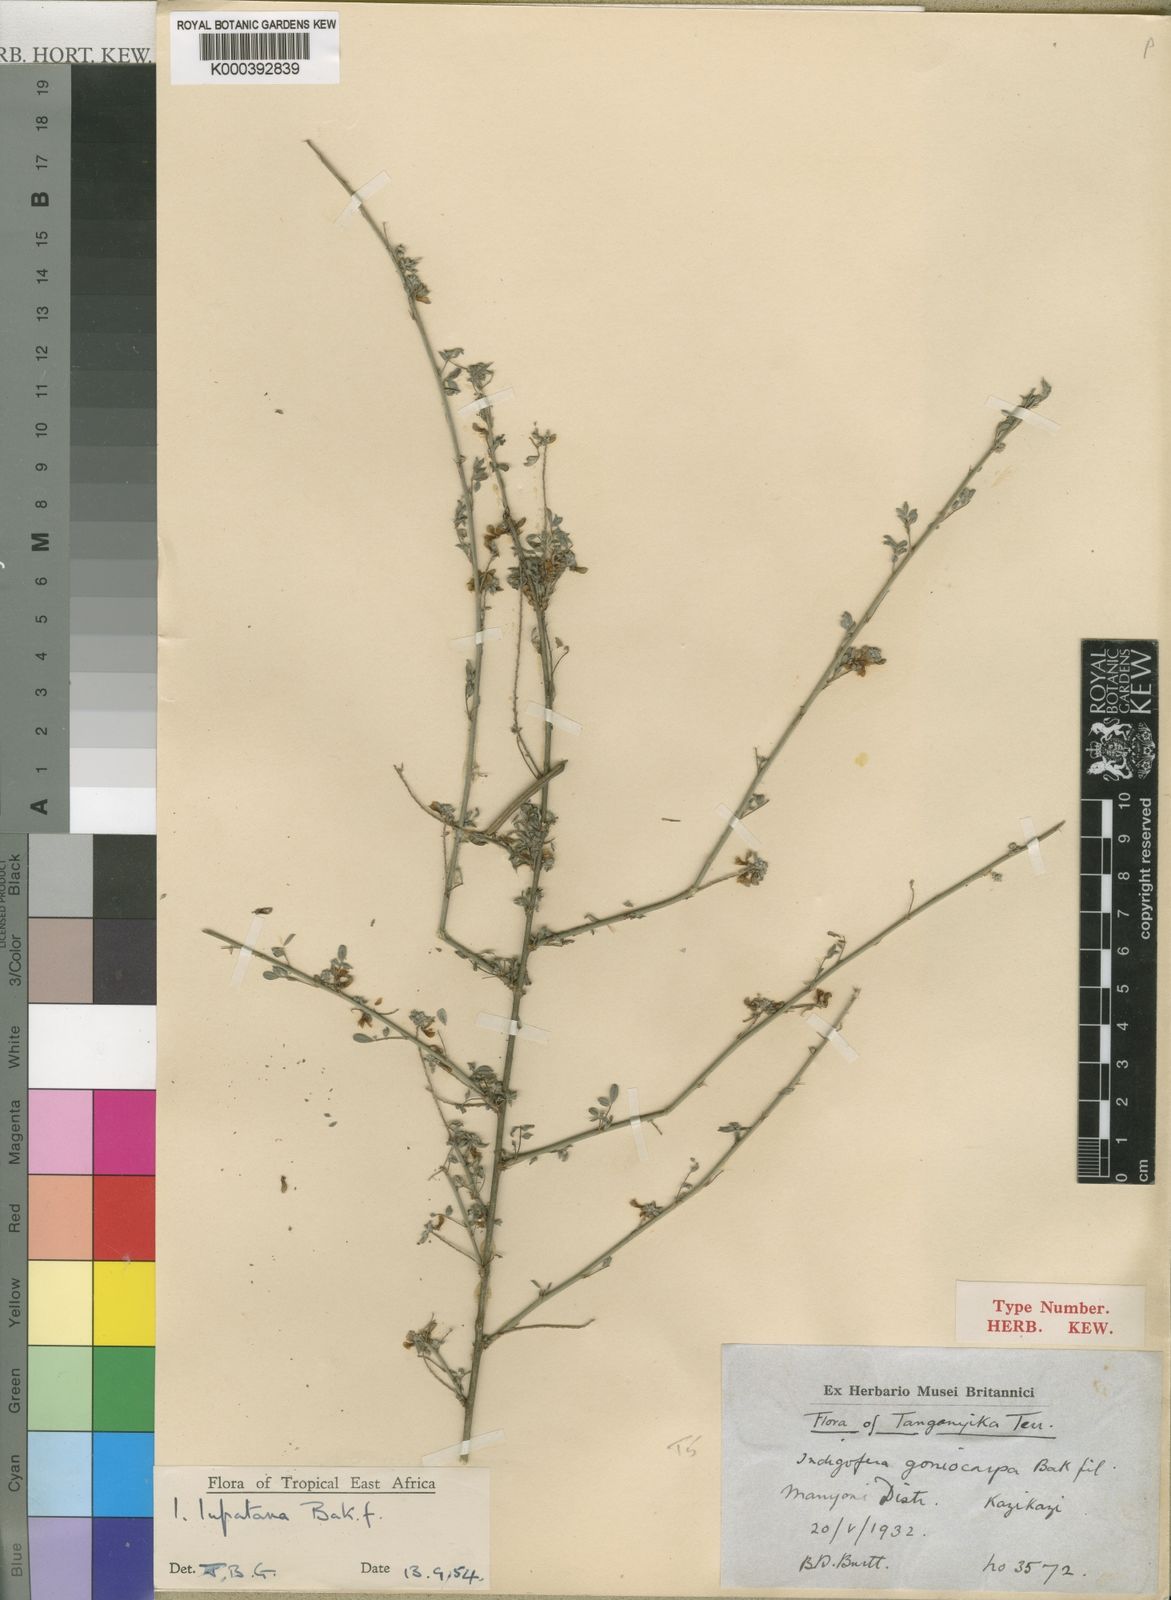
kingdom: Plantae
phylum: Tracheophyta
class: Magnoliopsida
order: Fabales
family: Fabaceae
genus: Indigofera
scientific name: Indigofera lupatana
